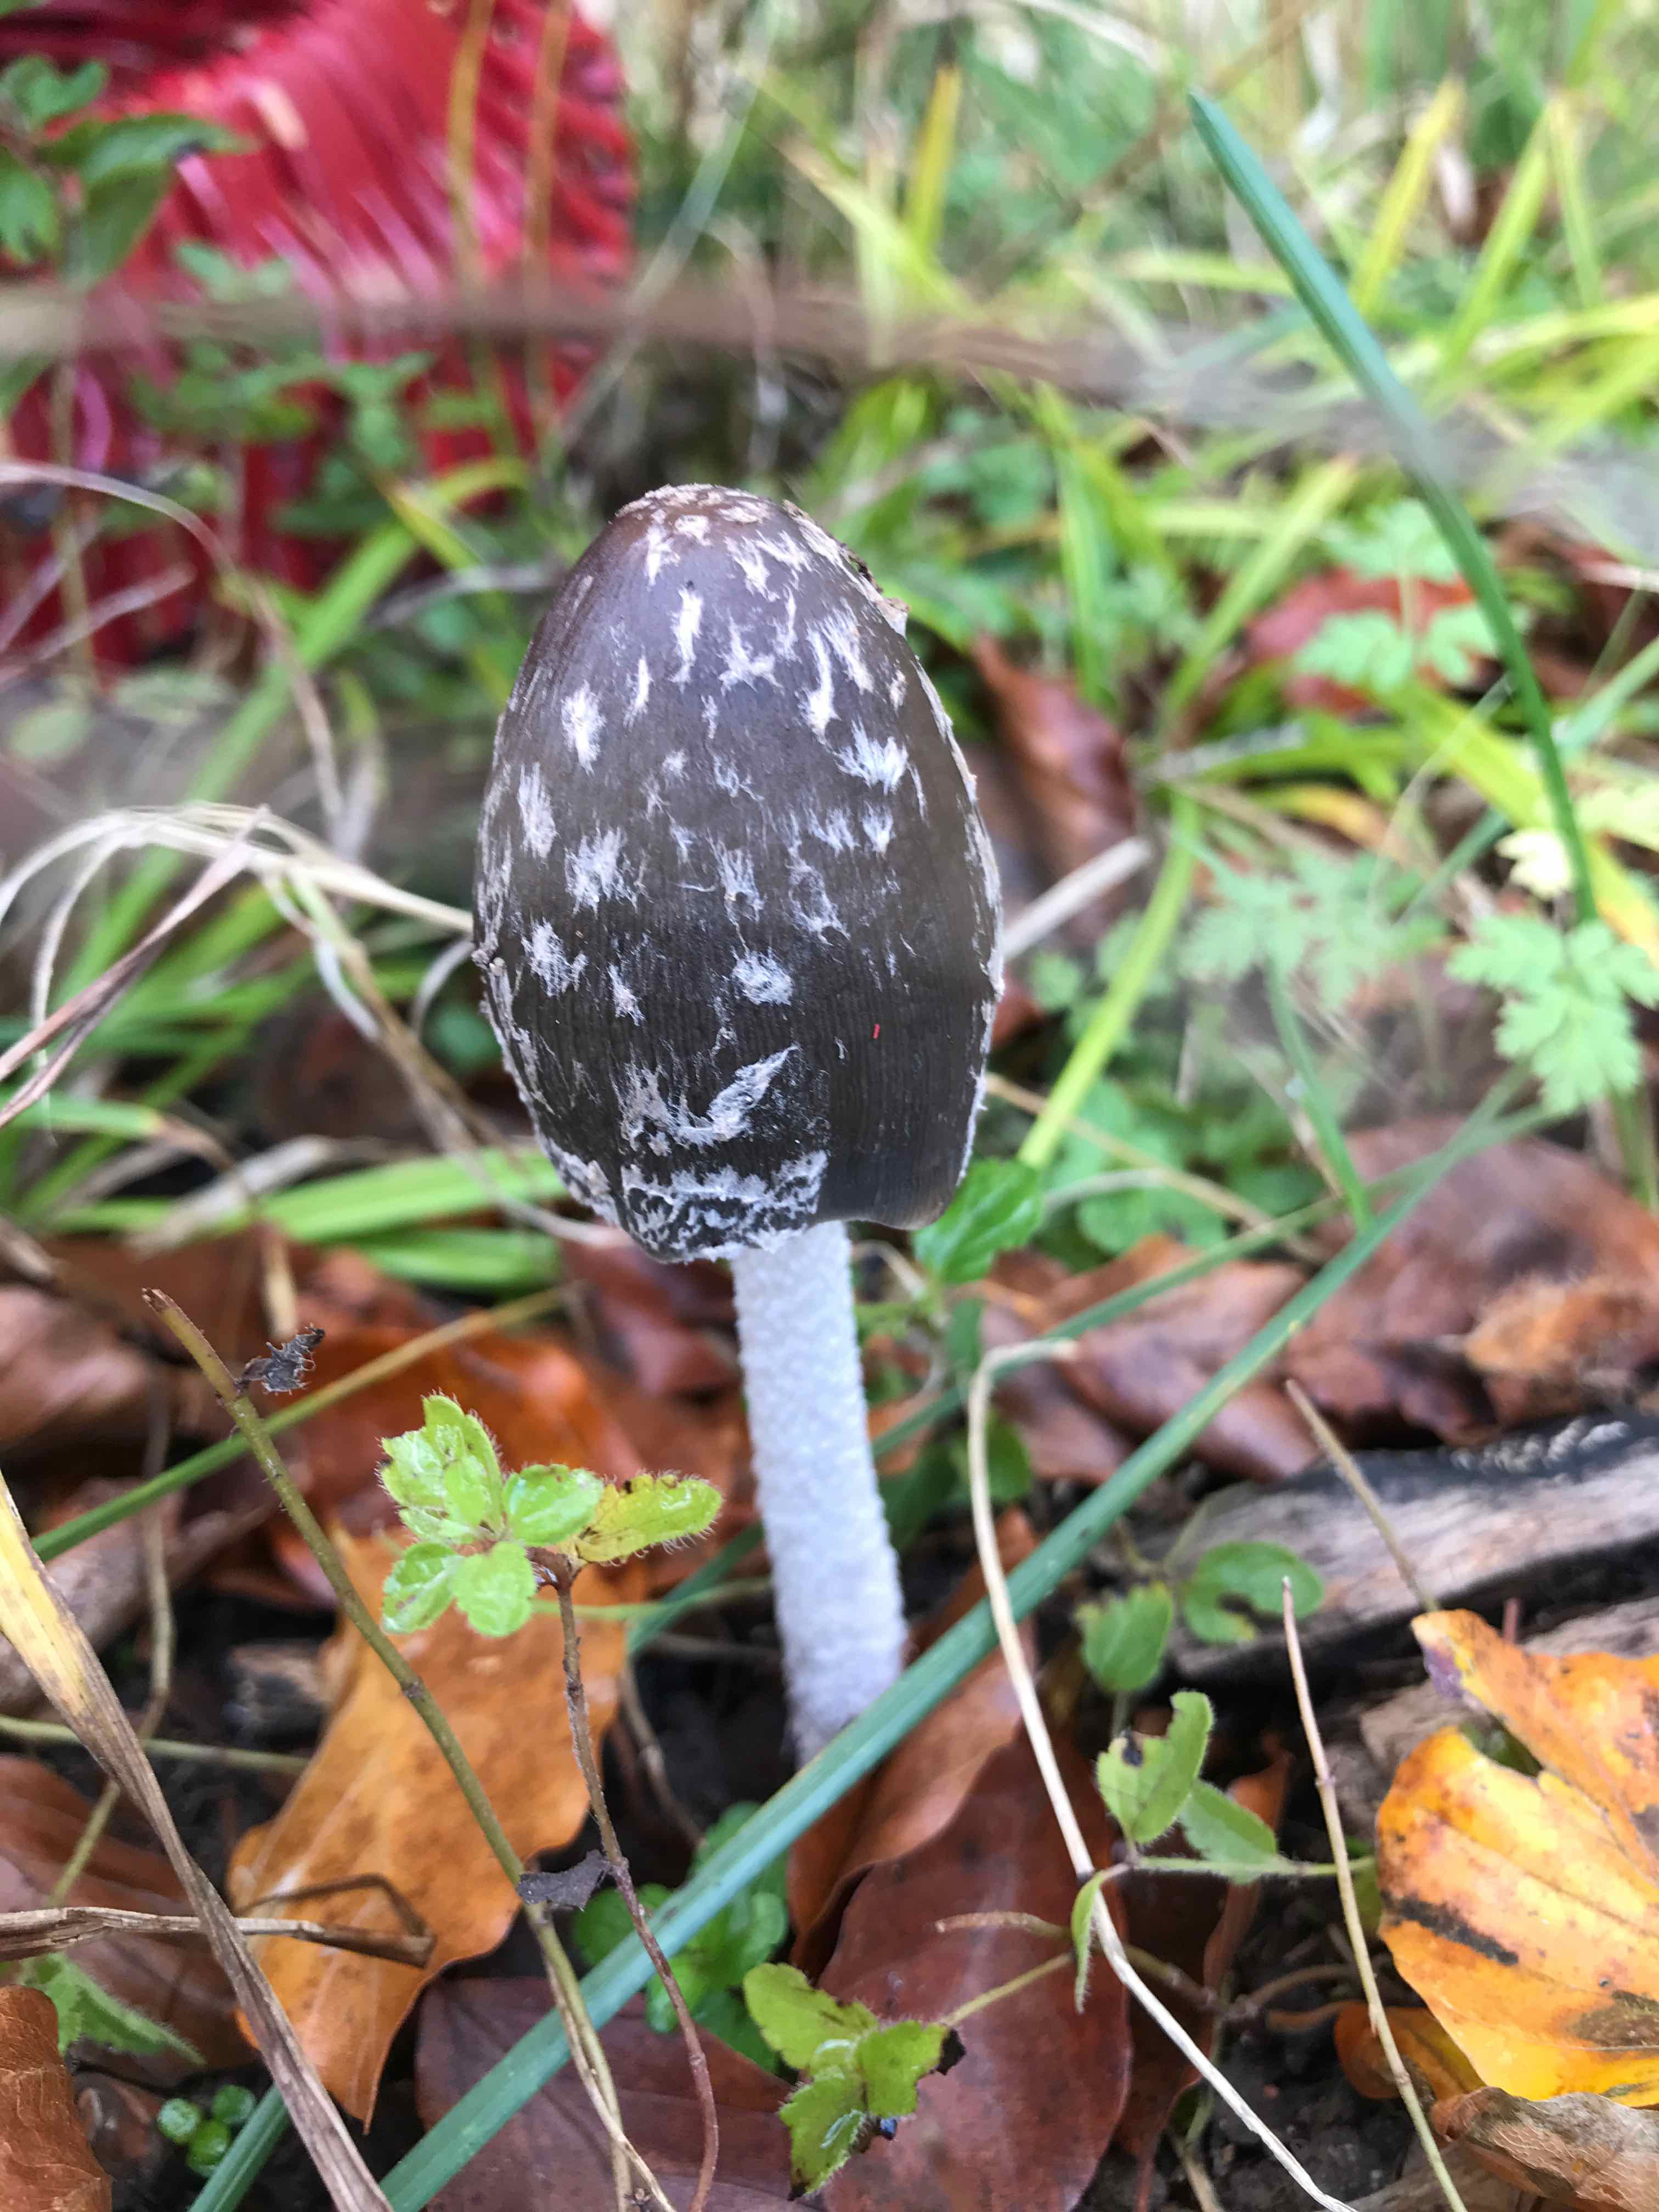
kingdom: Fungi
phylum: Basidiomycota
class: Agaricomycetes
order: Agaricales
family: Psathyrellaceae
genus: Coprinopsis
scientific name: Coprinopsis picacea
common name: skade-blækhat
